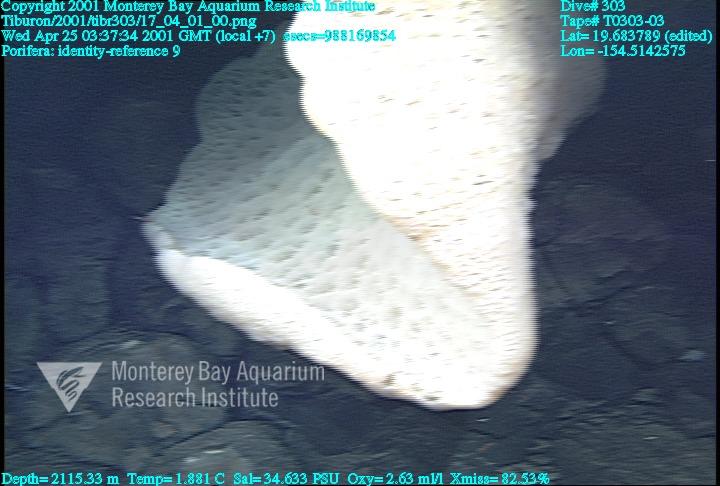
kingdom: Animalia
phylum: Porifera
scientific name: Porifera
